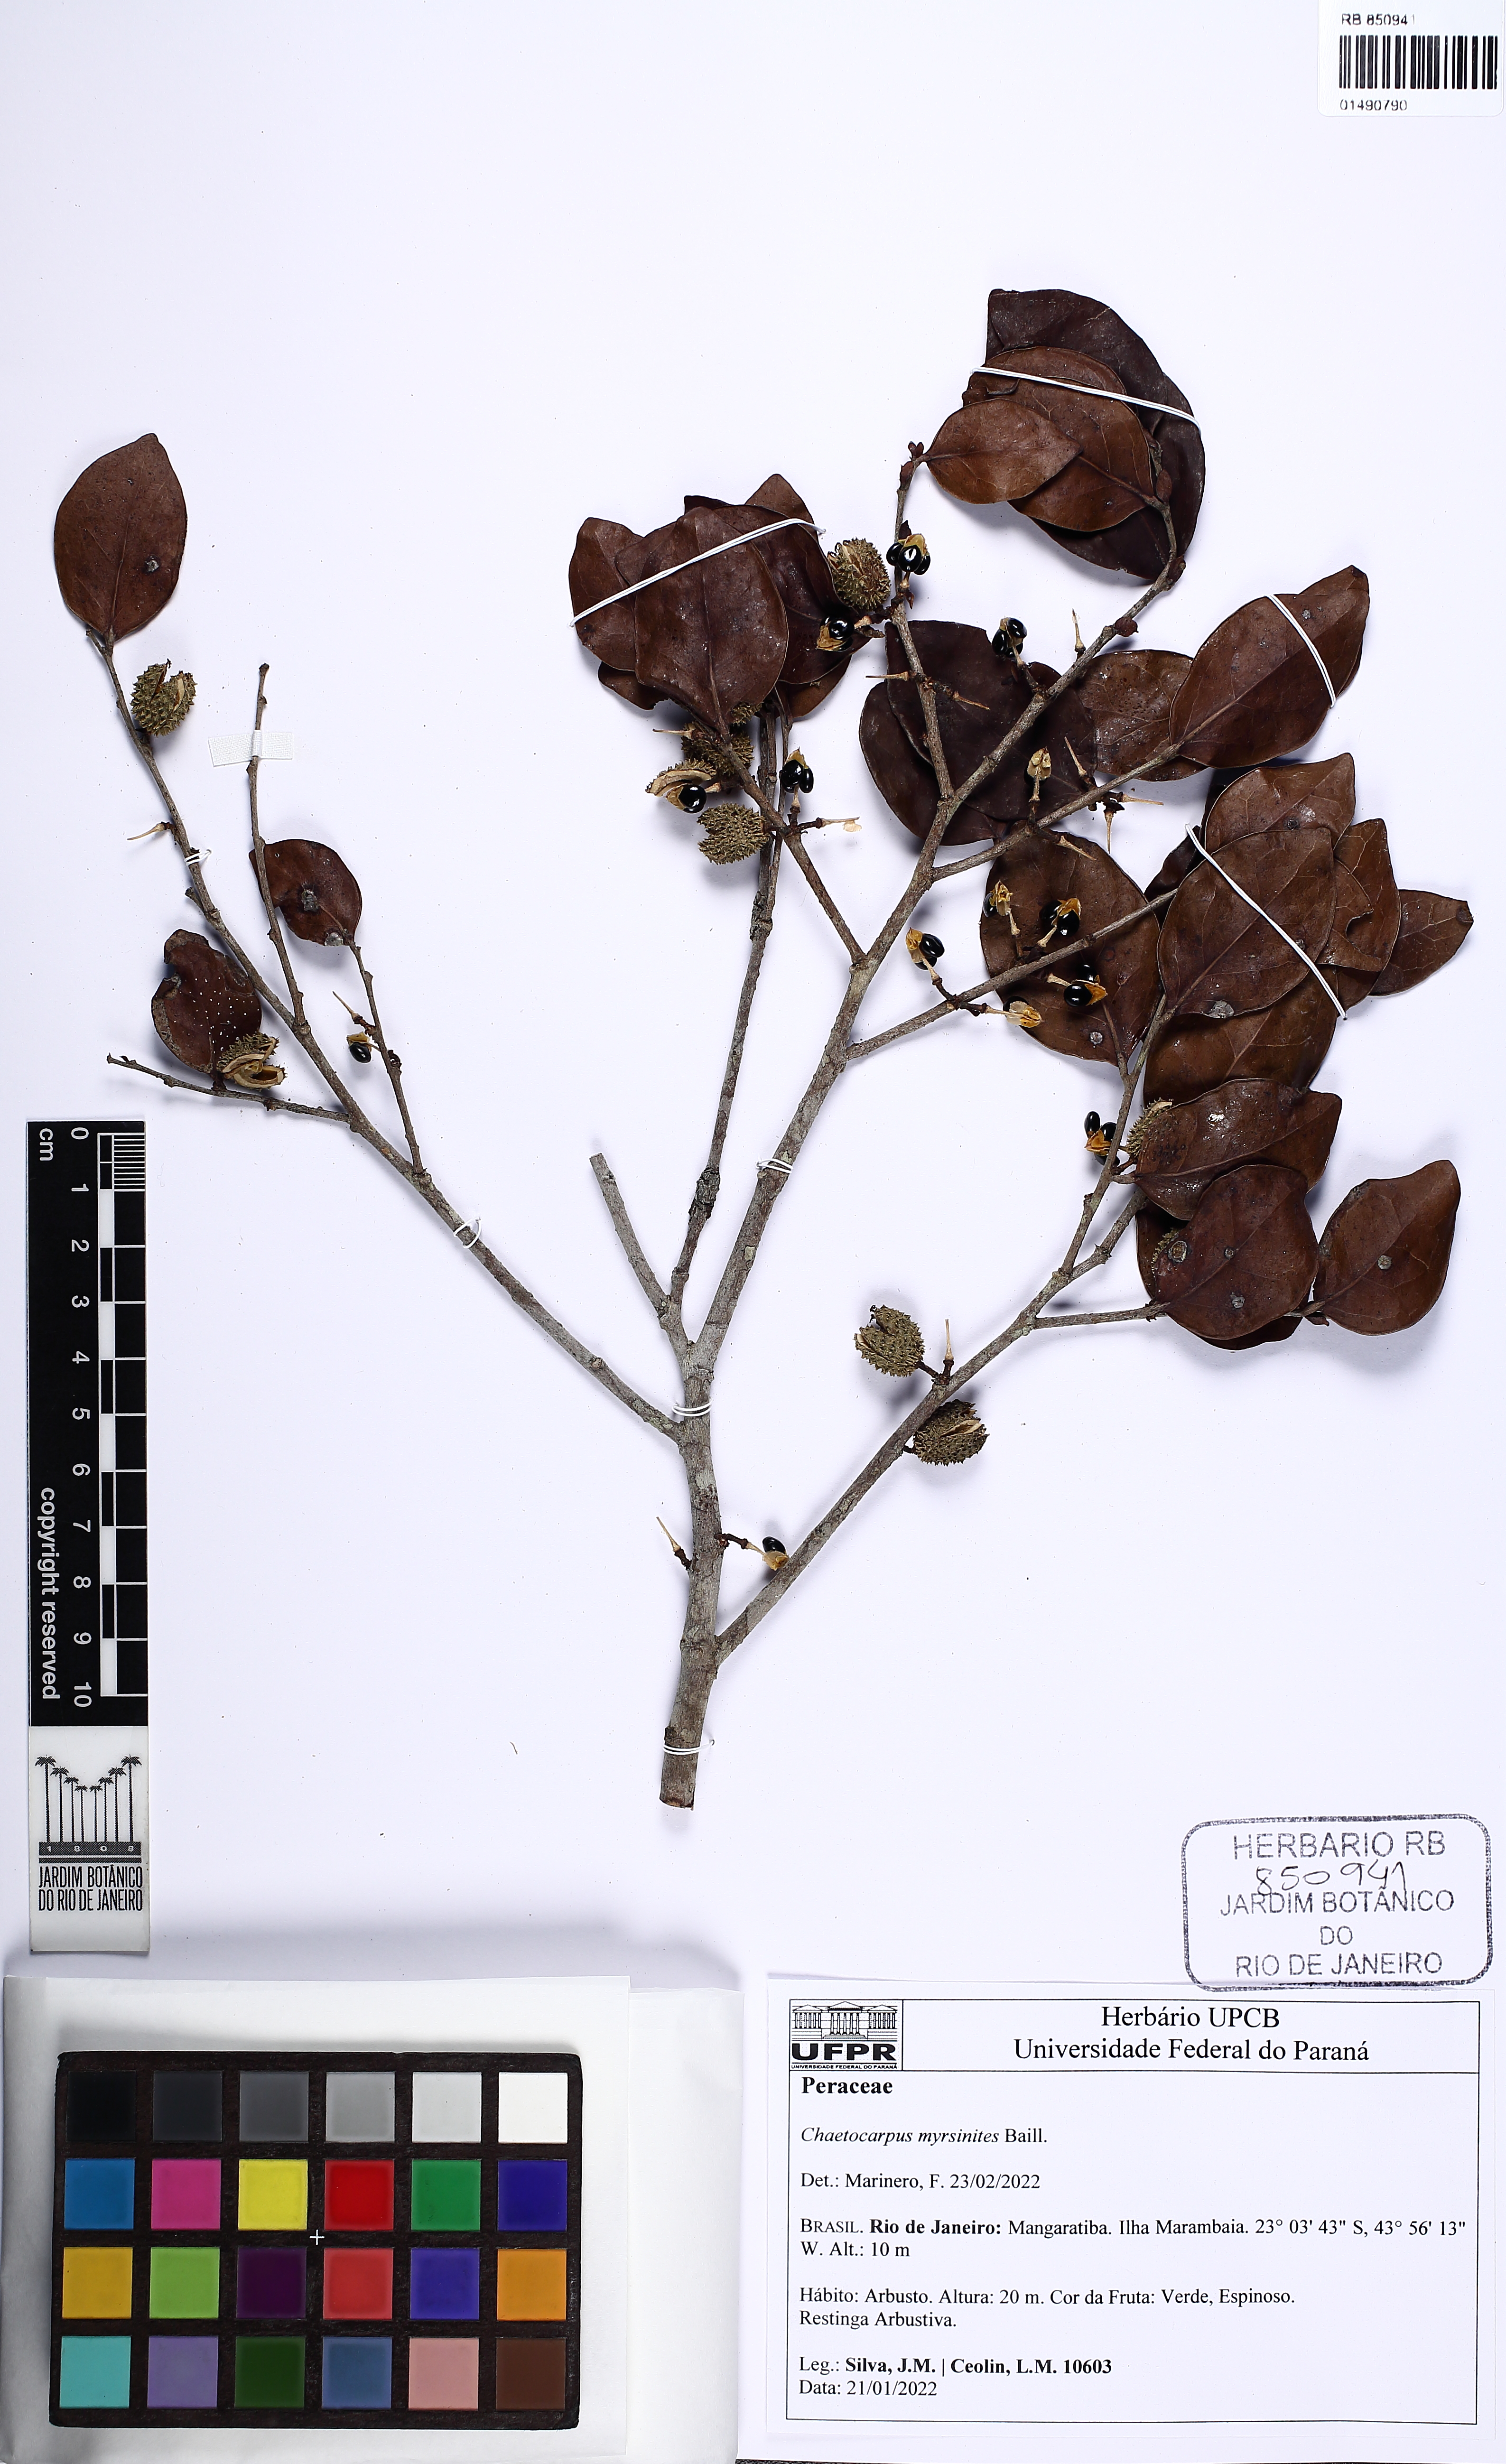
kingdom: Plantae
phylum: Tracheophyta
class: Magnoliopsida
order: Malpighiales
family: Peraceae
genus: Chaetocarpus
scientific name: Chaetocarpus myrsinites
